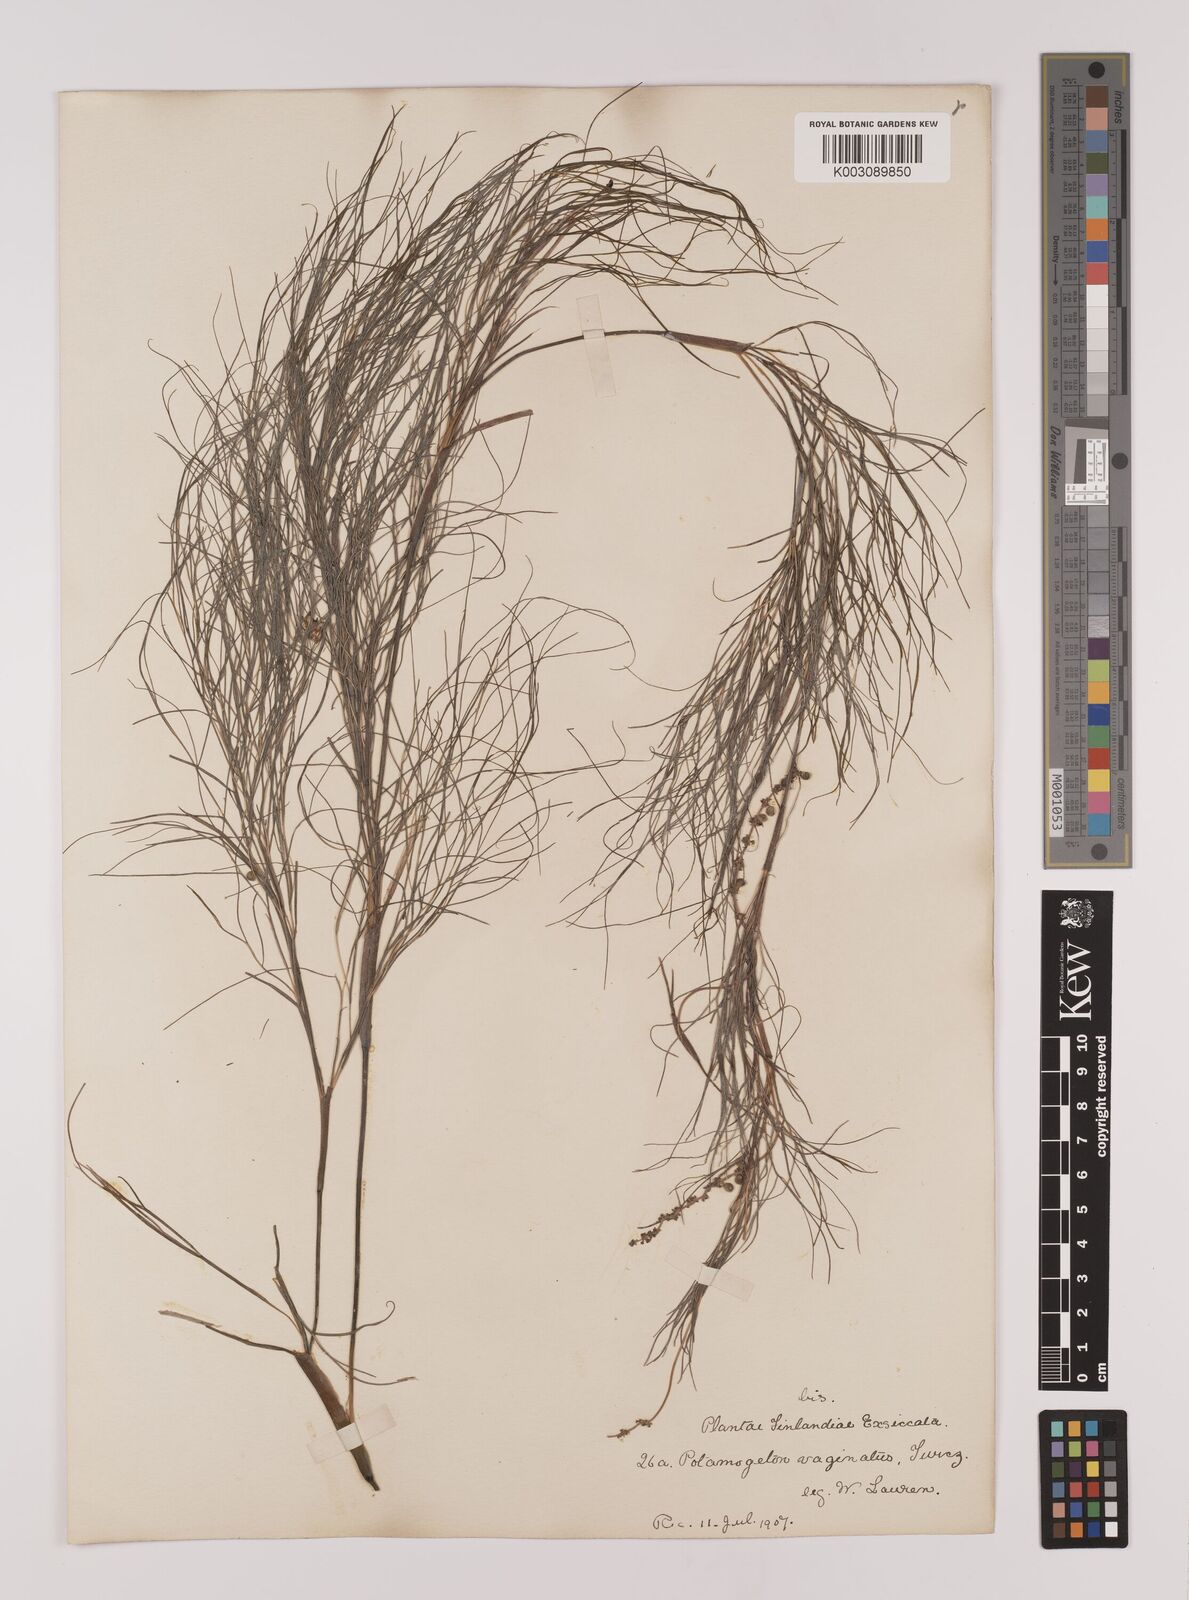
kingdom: Plantae
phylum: Tracheophyta
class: Liliopsida
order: Alismatales
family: Potamogetonaceae
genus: Stuckenia
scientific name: Stuckenia pectinata
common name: Sago pondweed
